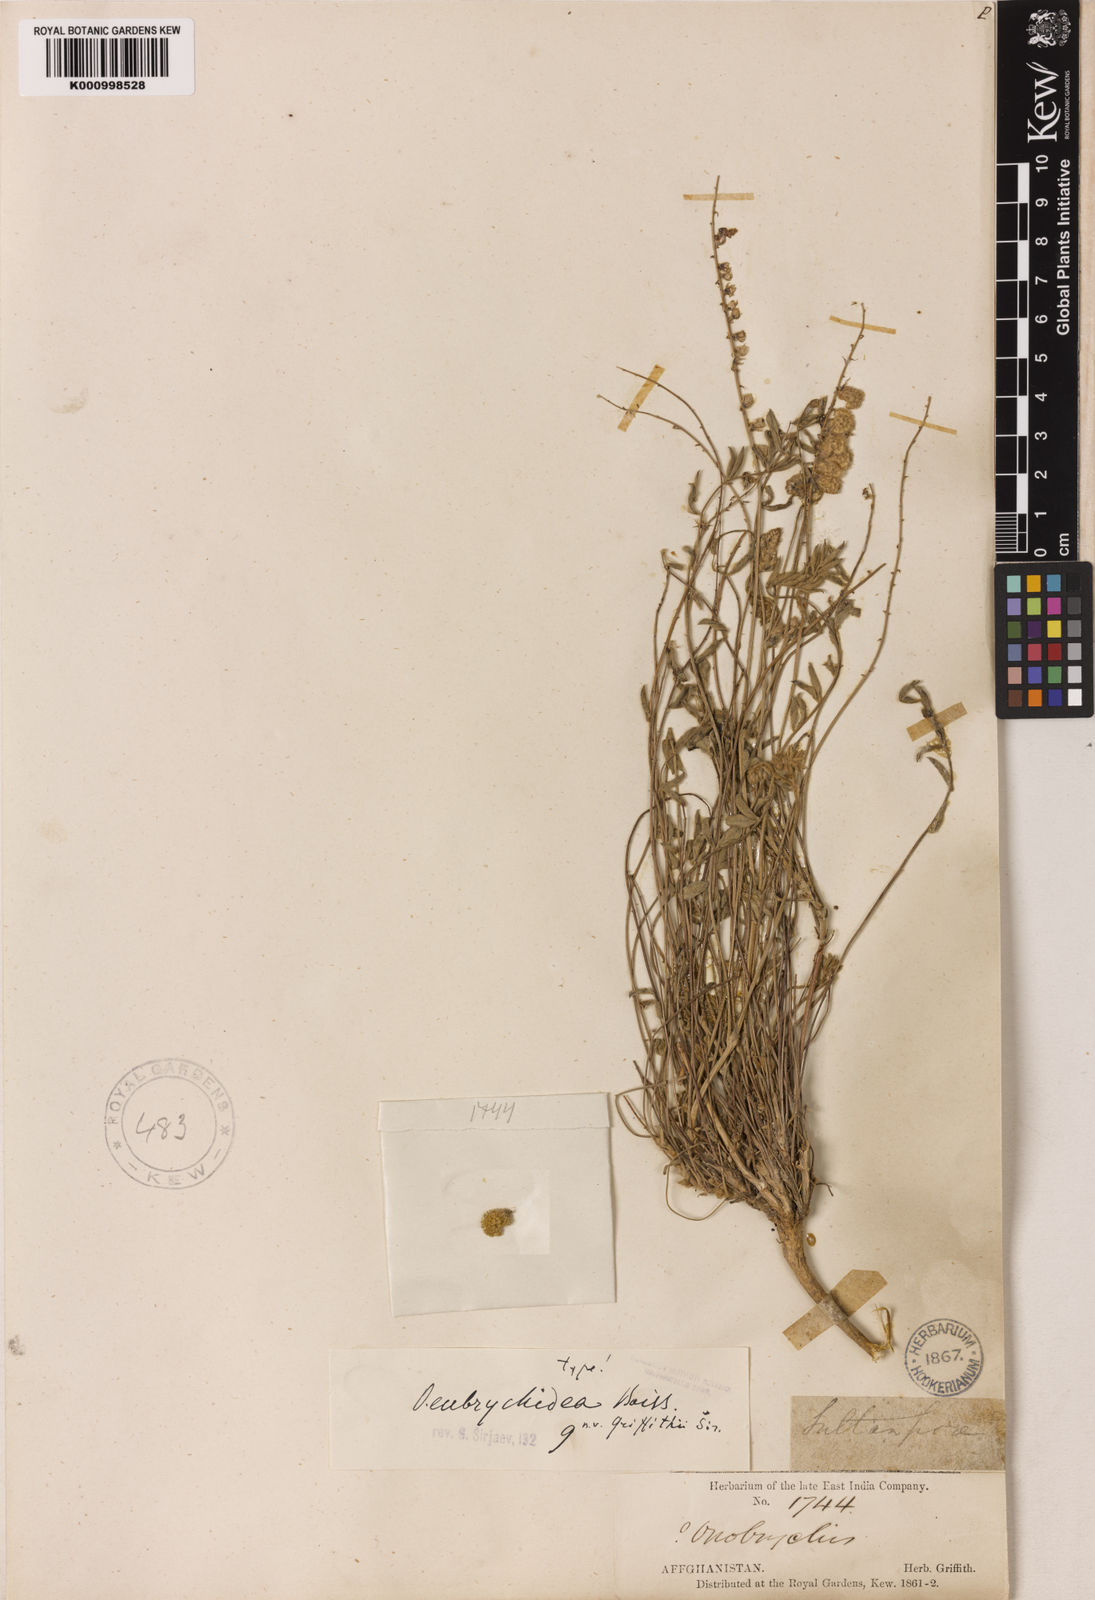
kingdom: Plantae
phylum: Tracheophyta
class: Magnoliopsida
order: Fabales
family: Fabaceae
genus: Onobrychis
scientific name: Onobrychis heliocarpa
